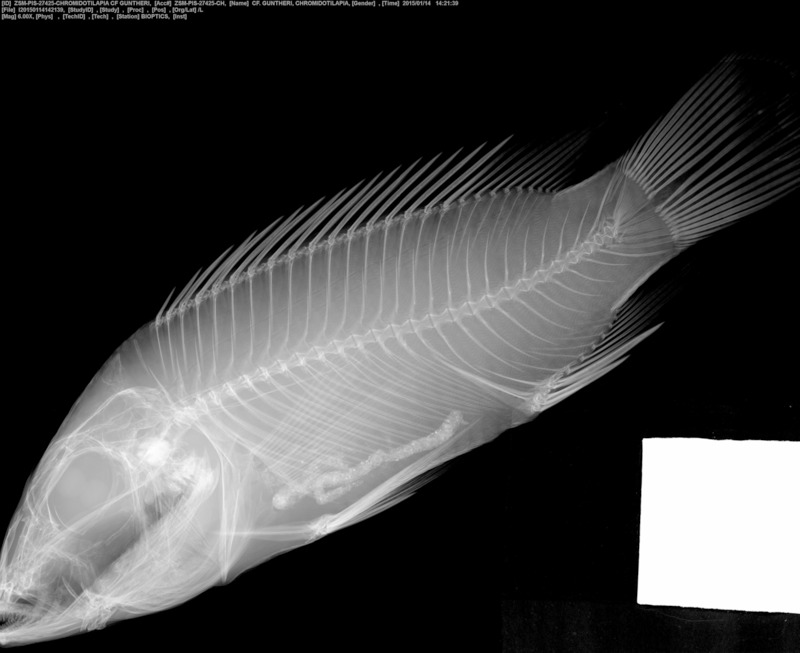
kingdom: Animalia
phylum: Chordata
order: Perciformes
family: Cichlidae
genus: Chromidotilapia
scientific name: Chromidotilapia guntheri
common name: Cichlid
